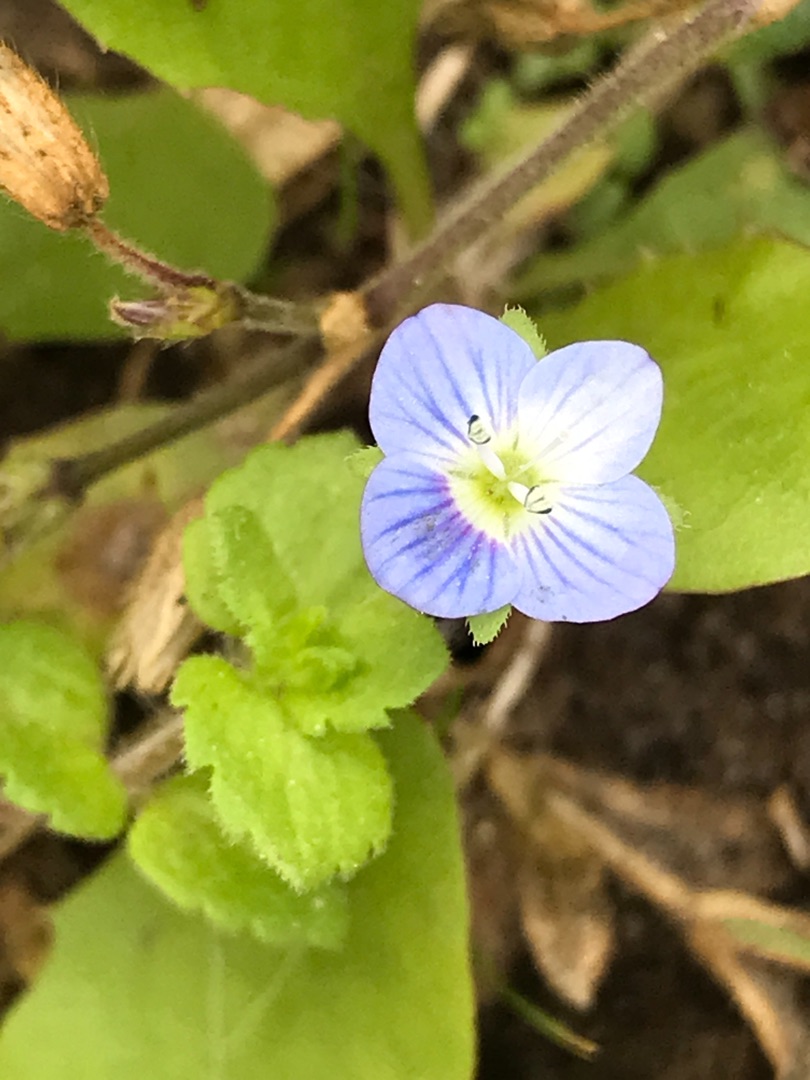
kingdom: Plantae
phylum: Tracheophyta
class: Magnoliopsida
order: Lamiales
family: Plantaginaceae
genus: Veronica
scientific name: Veronica filiformis
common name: Tråd-ærenpris
